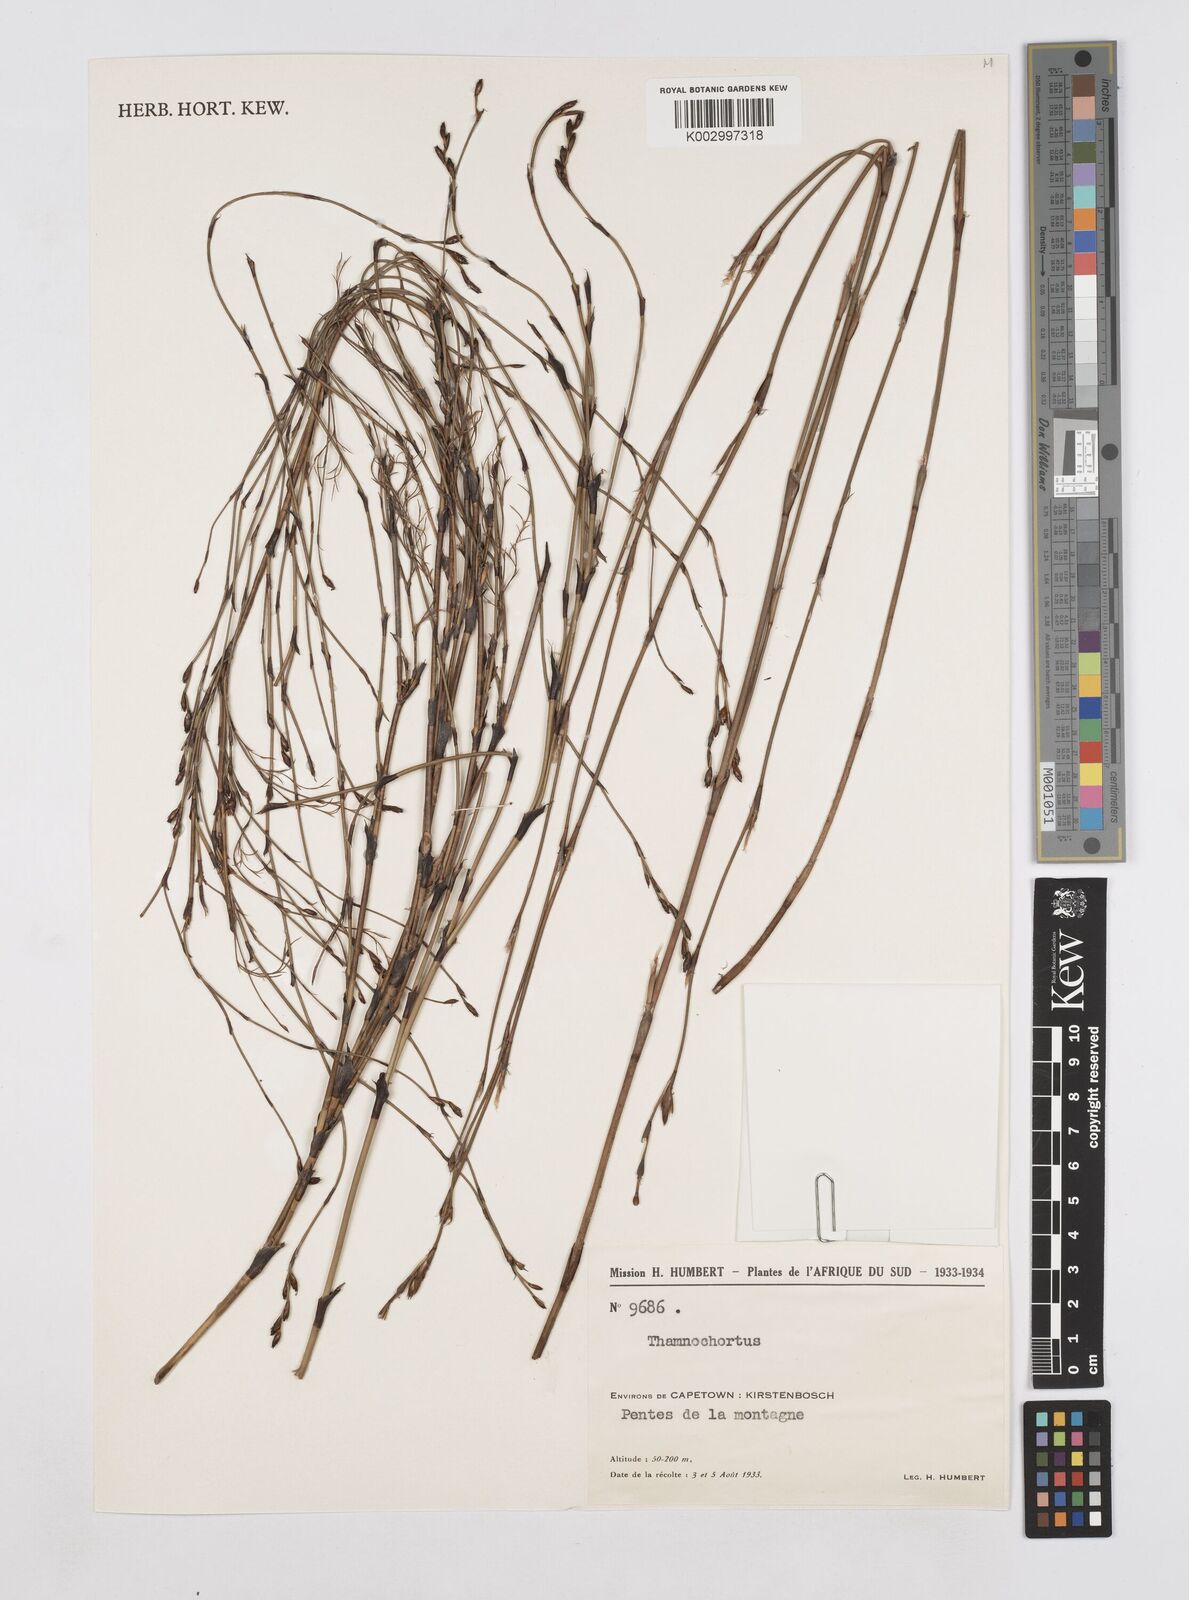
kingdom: Plantae
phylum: Tracheophyta
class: Liliopsida
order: Poales
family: Restionaceae
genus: Thamnochortus
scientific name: Thamnochortus
